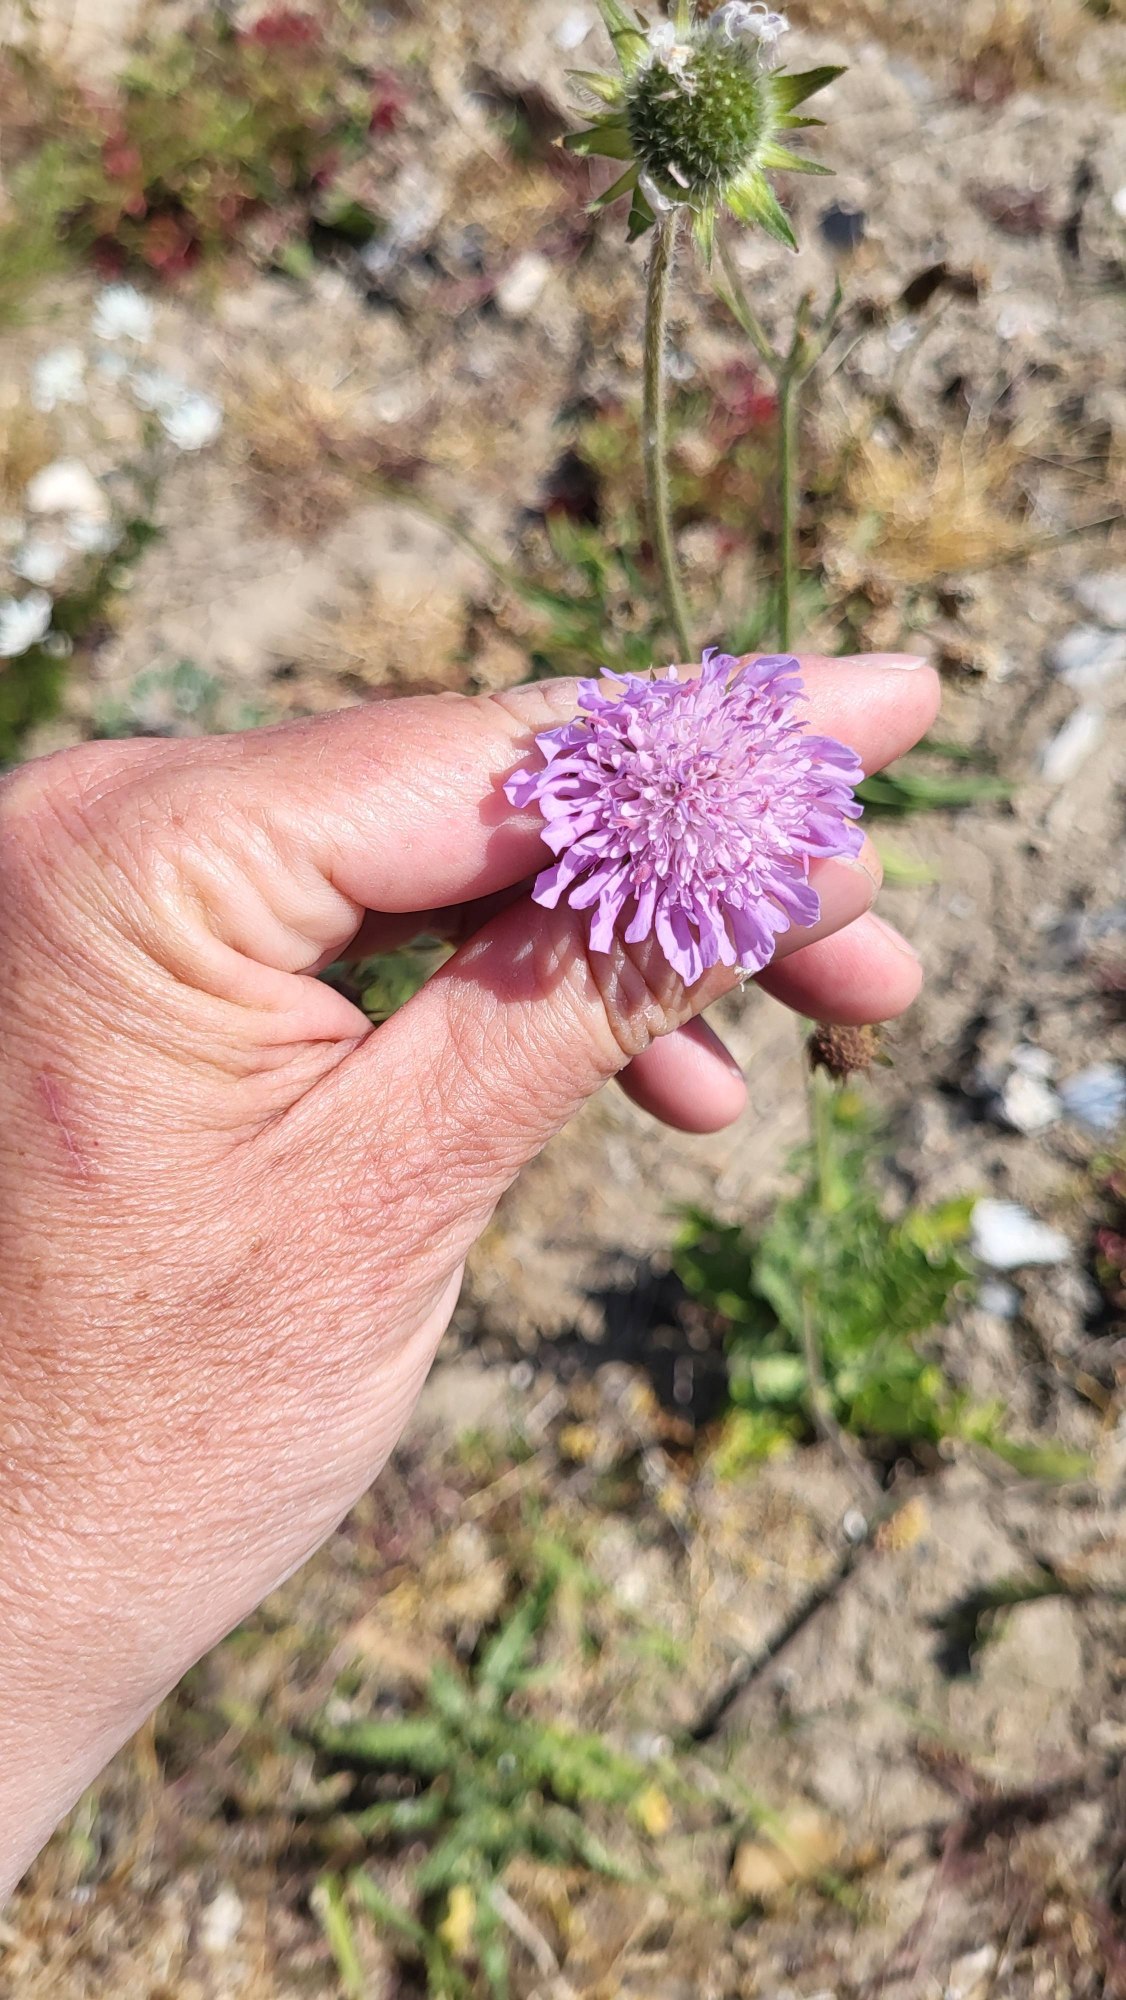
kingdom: Plantae
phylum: Tracheophyta
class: Magnoliopsida
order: Dipsacales
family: Caprifoliaceae
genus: Knautia
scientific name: Knautia arvensis
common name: Blåhat
